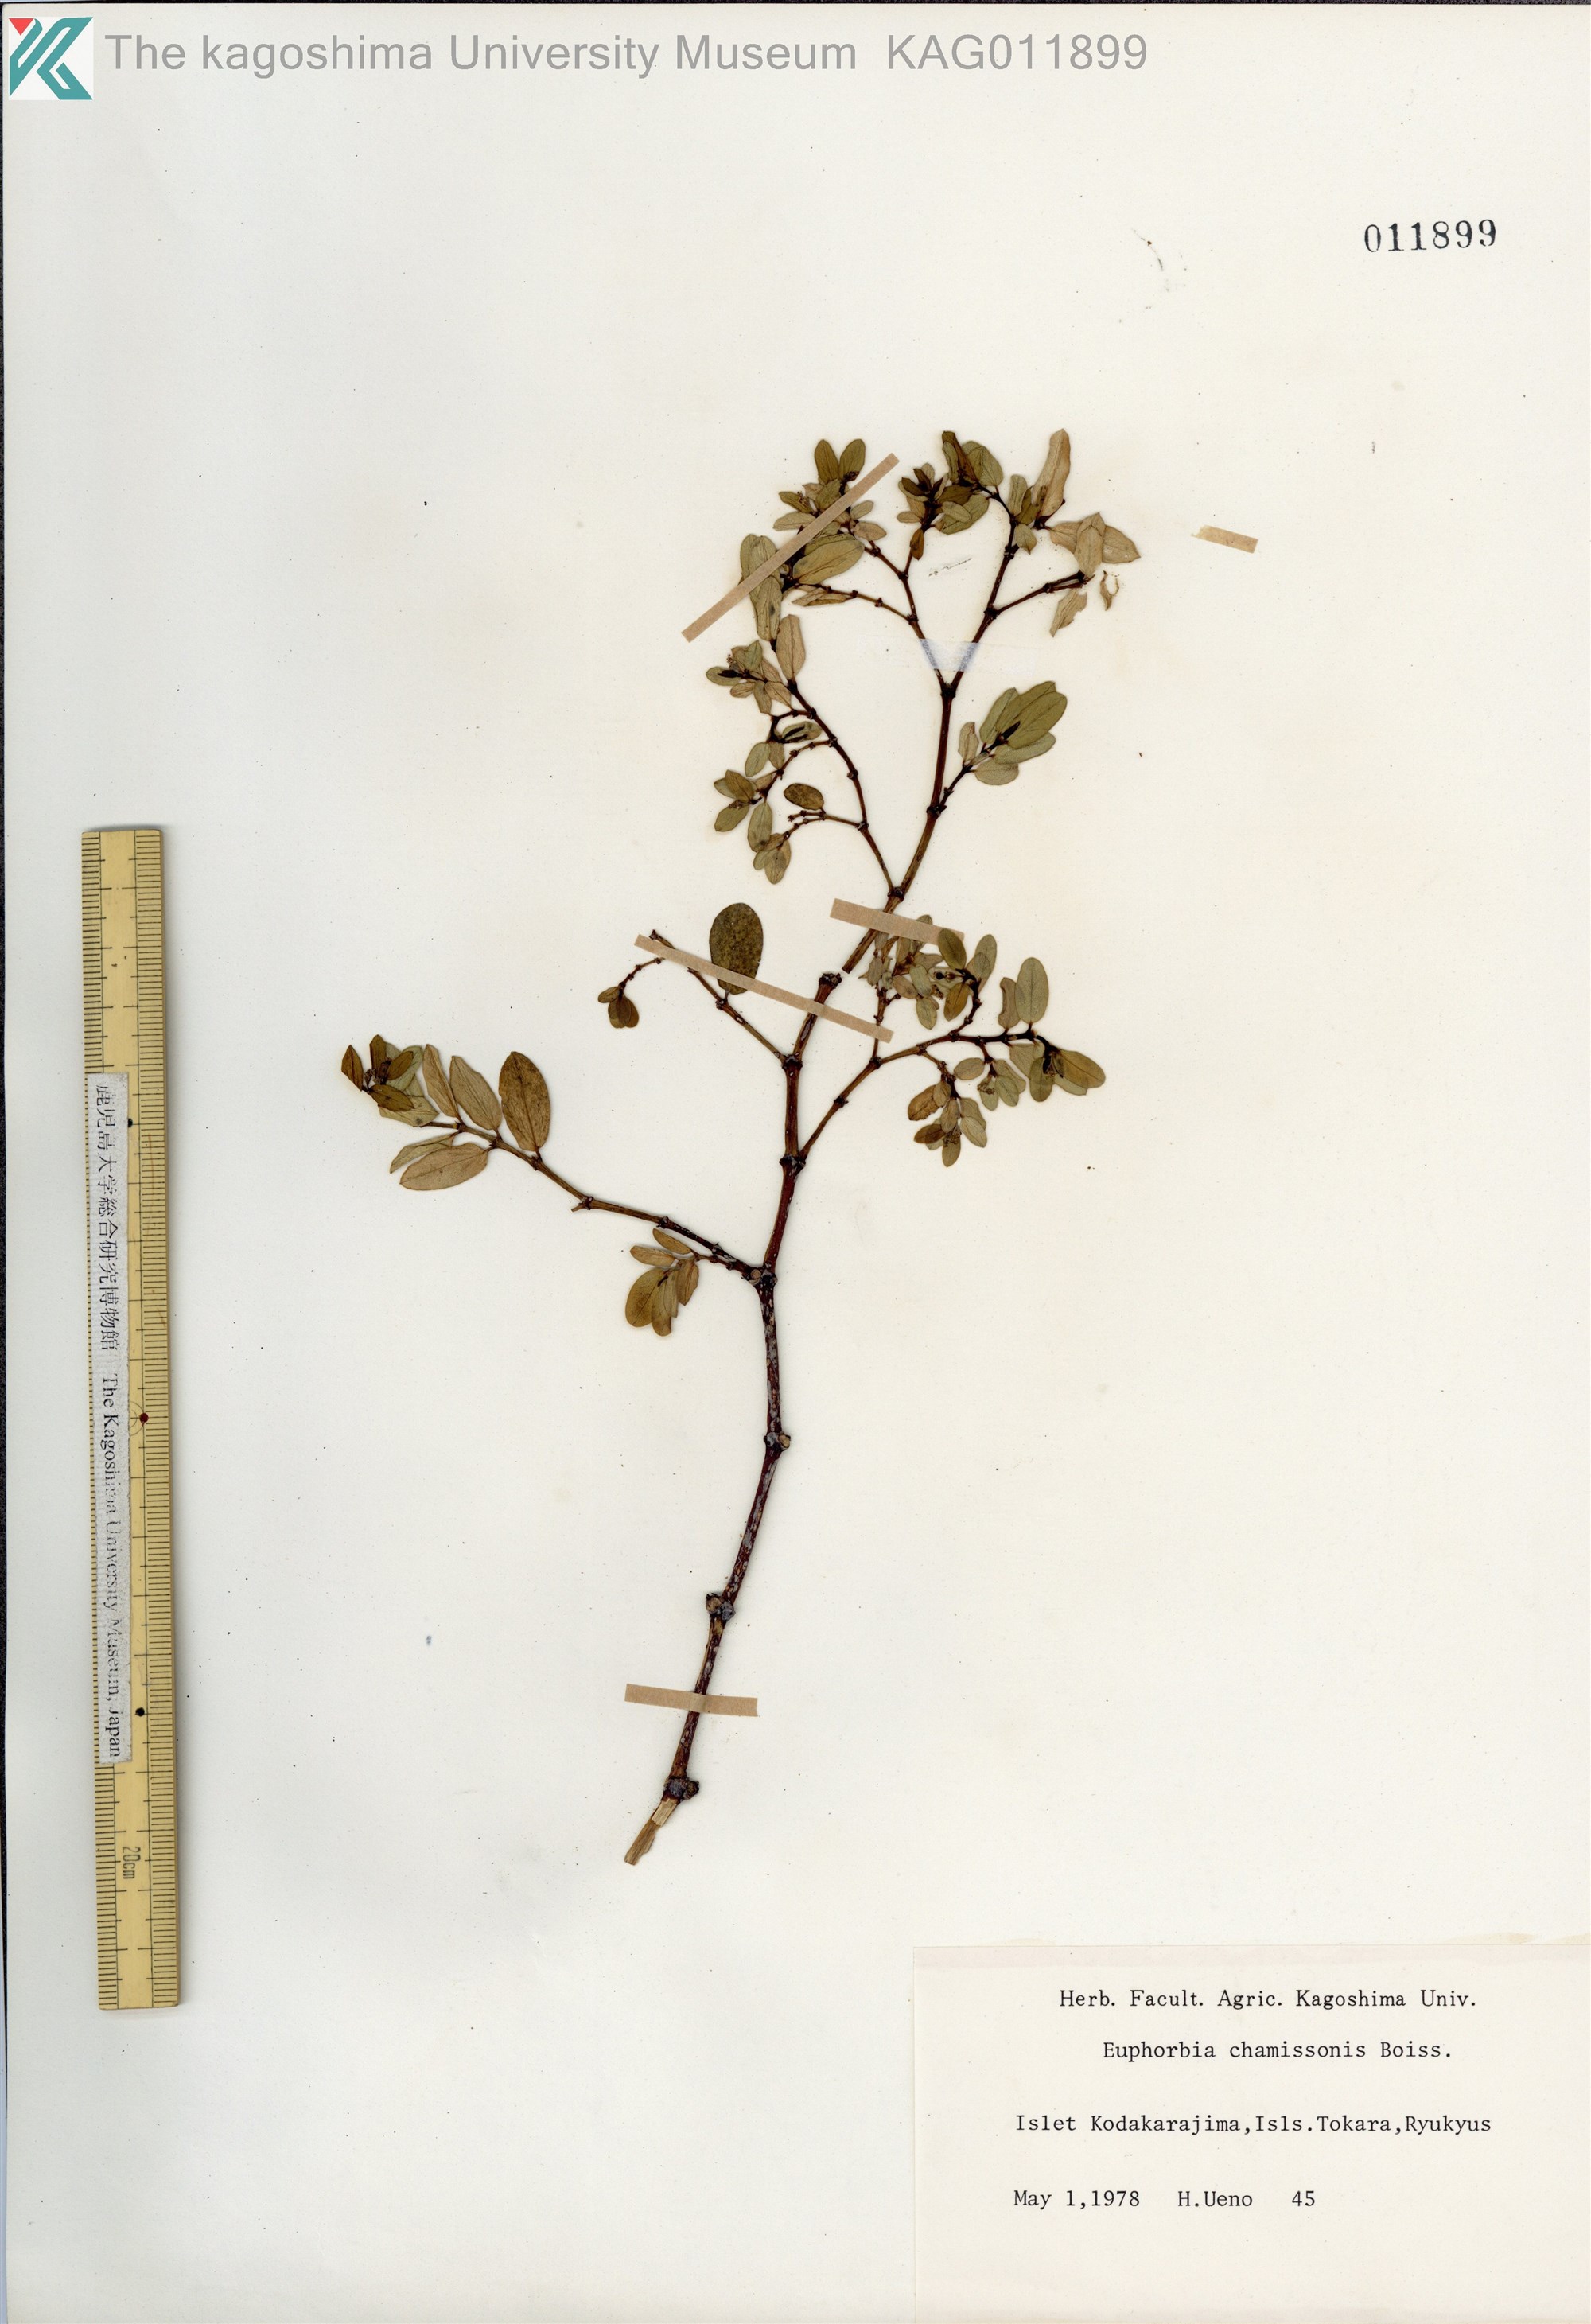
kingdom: Plantae
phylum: Tracheophyta
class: Magnoliopsida
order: Malpighiales
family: Euphorbiaceae
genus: Euphorbia
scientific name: Euphorbia chamissonis
